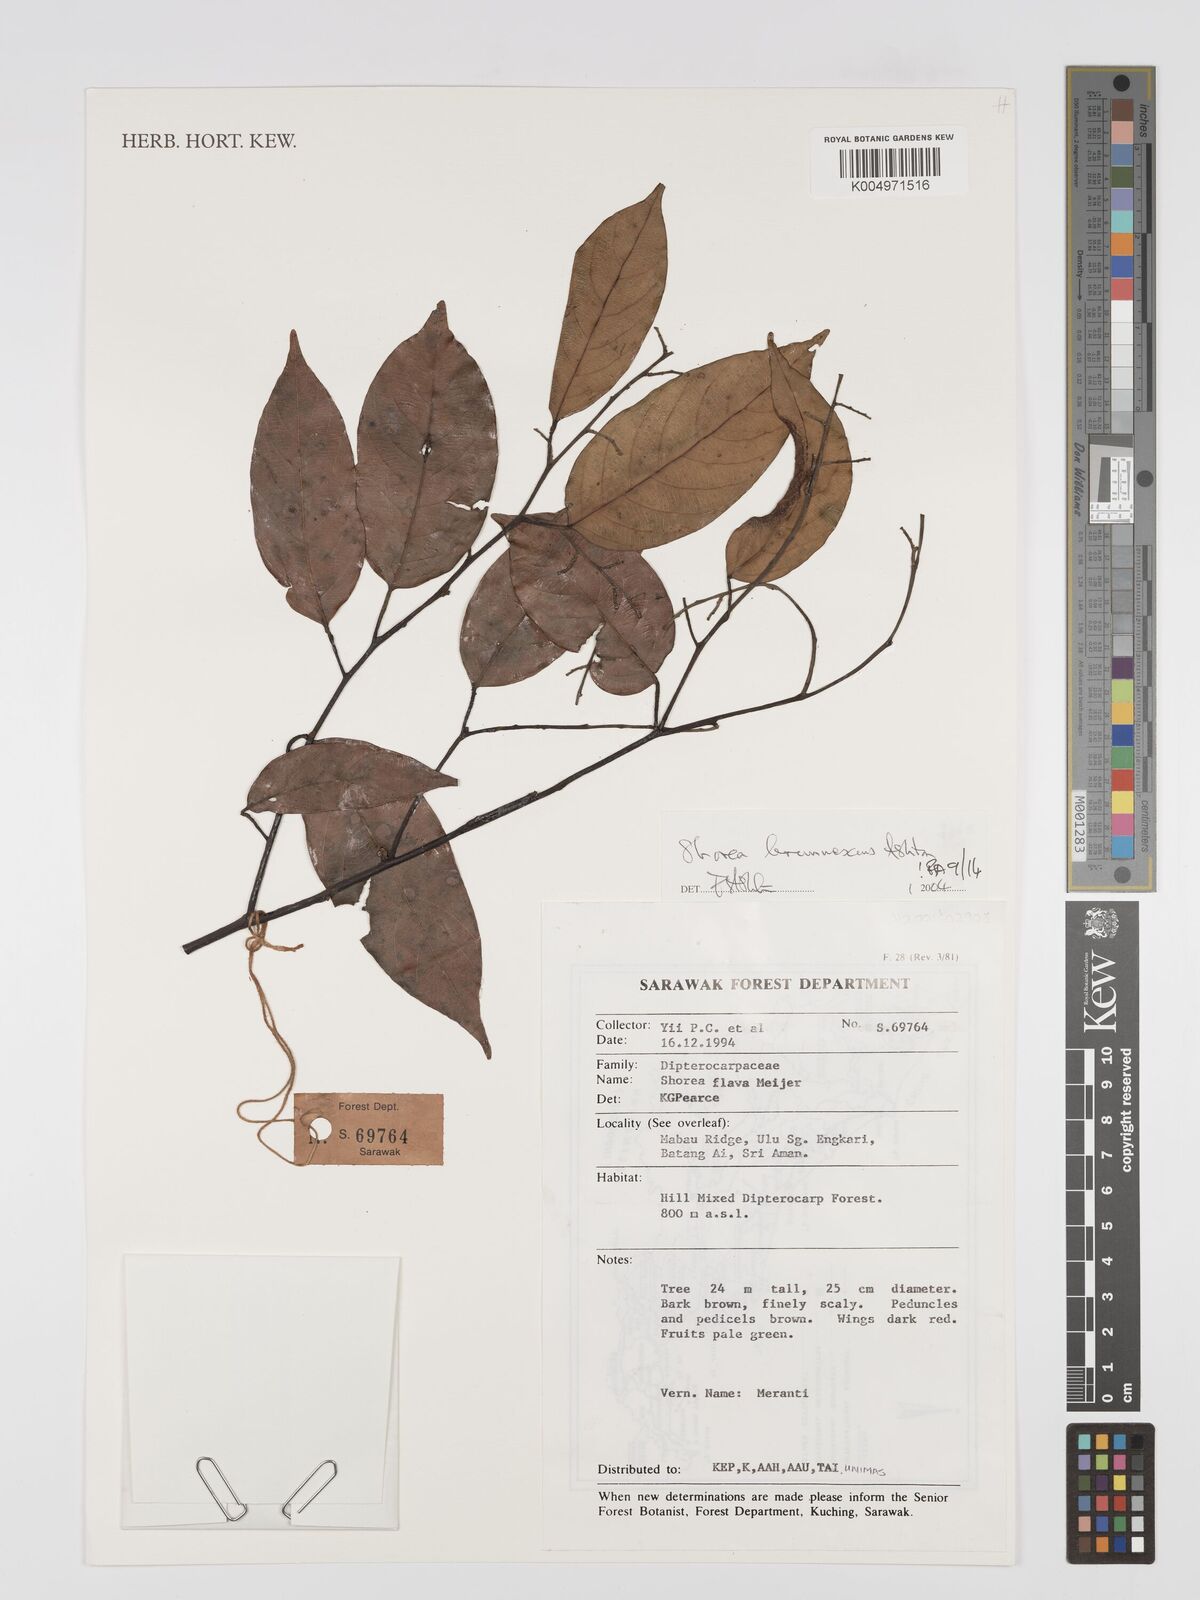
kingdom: Plantae
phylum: Tracheophyta
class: Magnoliopsida
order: Malvales
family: Dipterocarpaceae
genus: Shorea
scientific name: Shorea brunnescens
